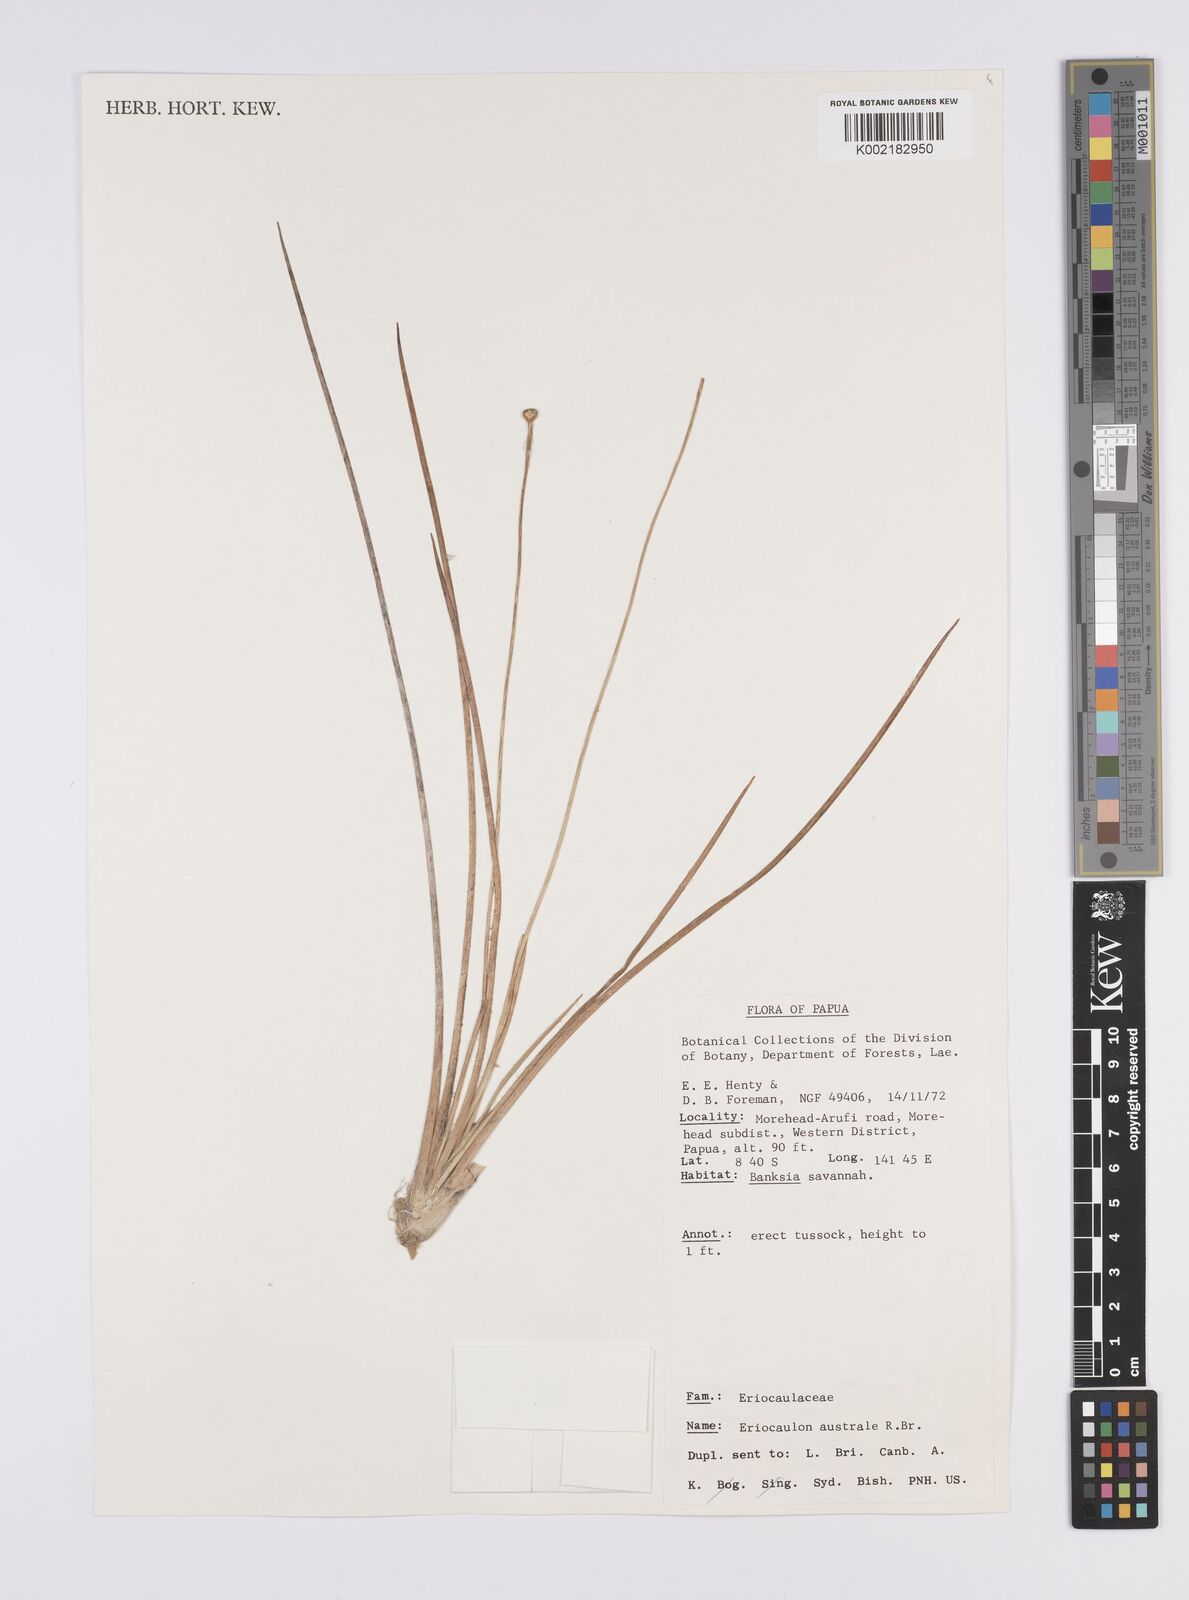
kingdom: Plantae
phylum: Tracheophyta
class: Liliopsida
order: Poales
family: Eriocaulaceae
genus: Eriocaulon
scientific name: Eriocaulon australe
